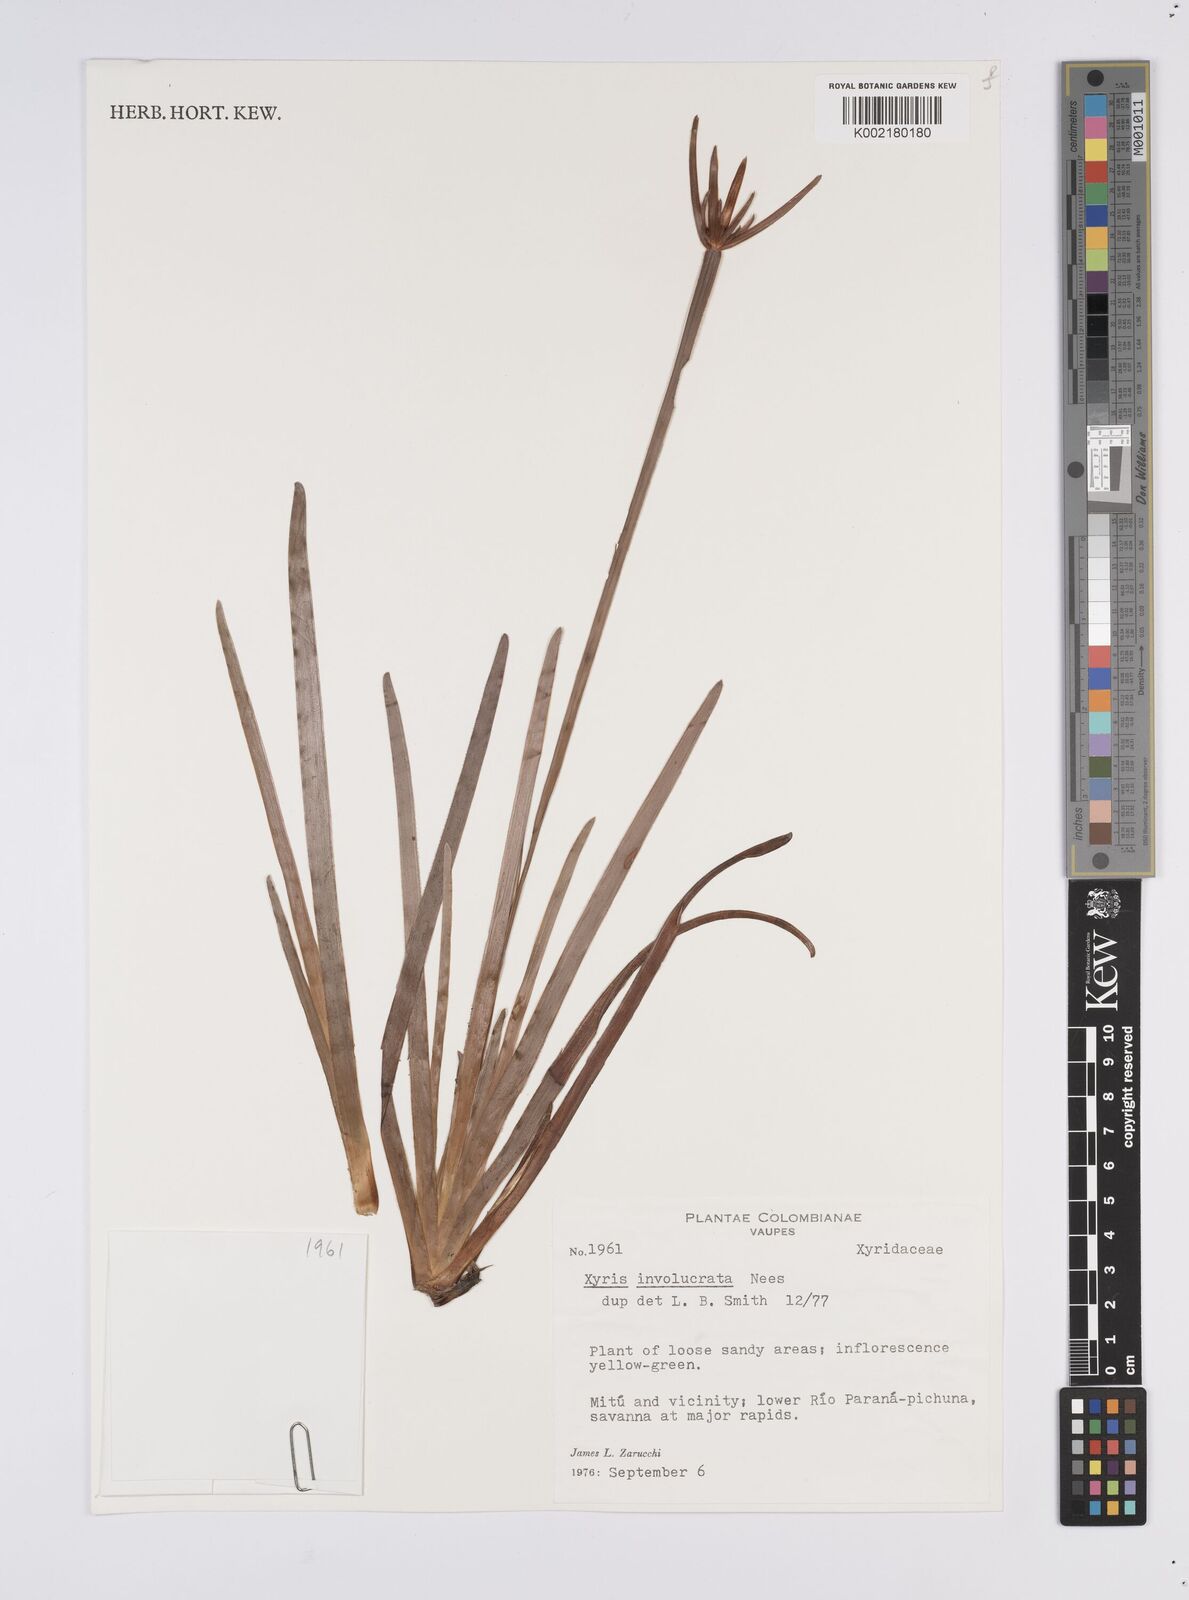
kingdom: Plantae
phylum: Tracheophyta
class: Liliopsida
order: Poales
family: Xyridaceae
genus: Xyris
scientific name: Xyris involucrata
